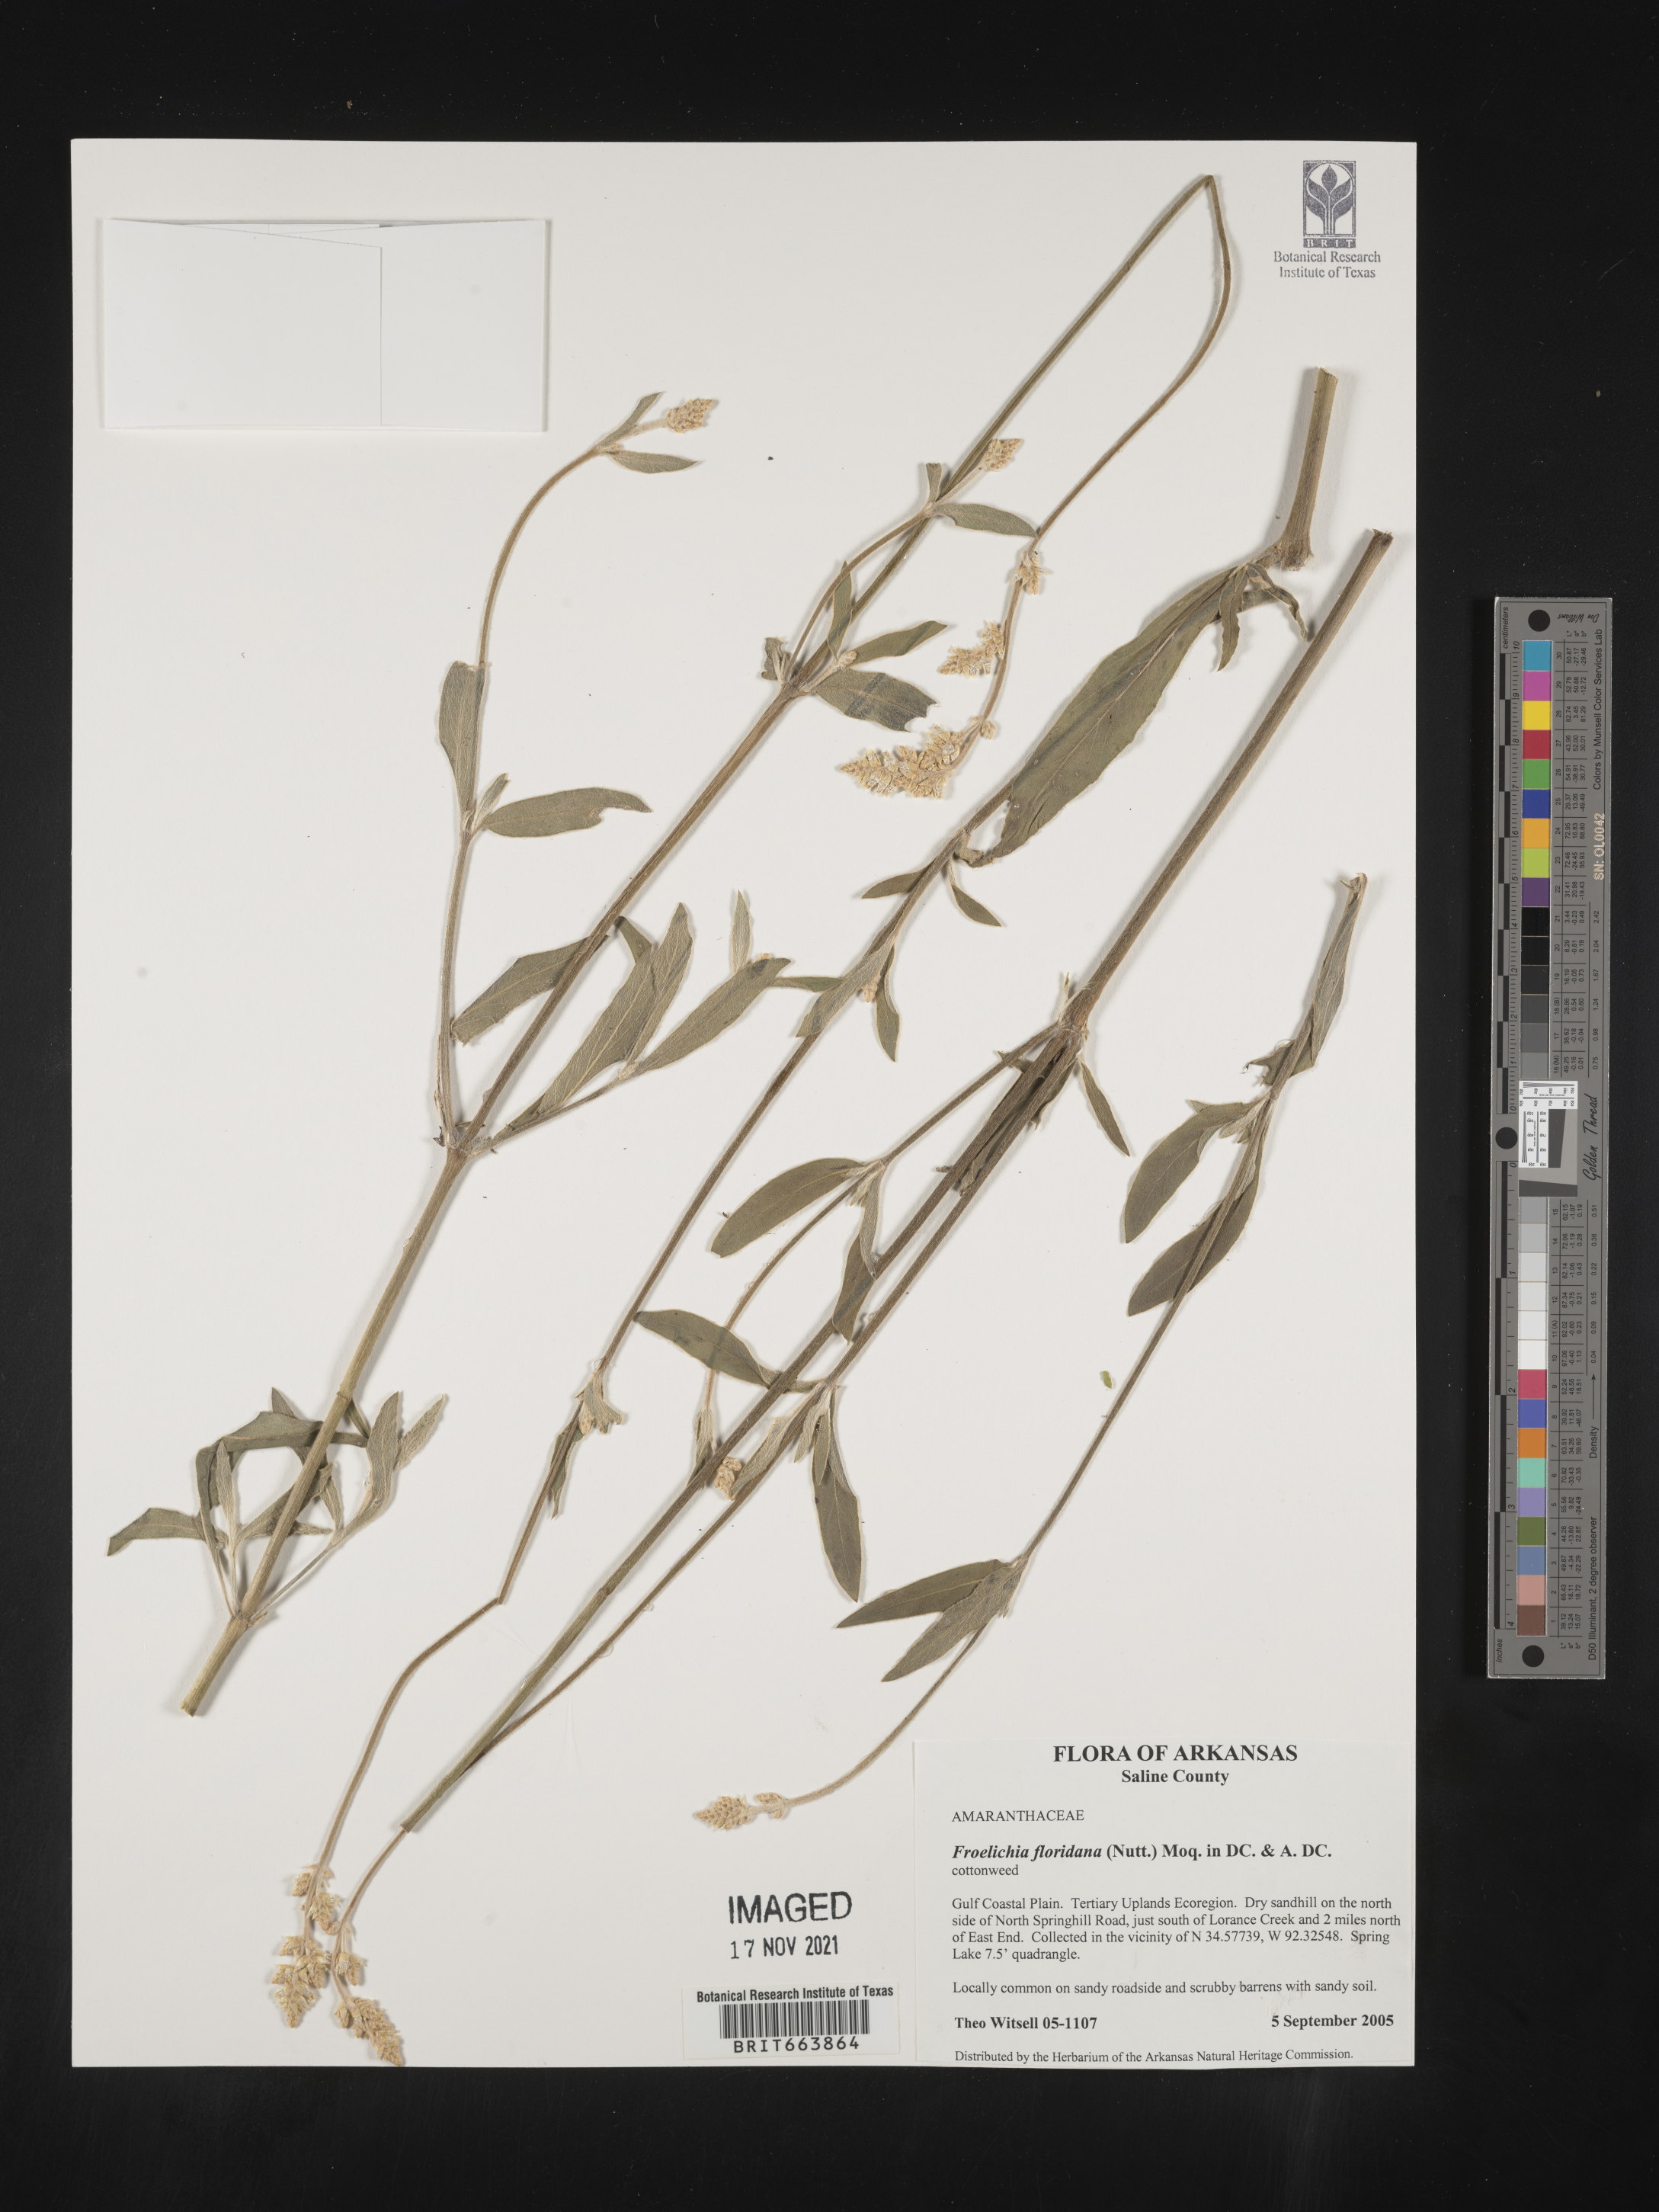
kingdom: Plantae
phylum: Tracheophyta
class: Magnoliopsida
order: Caryophyllales
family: Amaranthaceae
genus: Froelichia
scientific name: Froelichia floridana
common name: Florida snake-cotton
